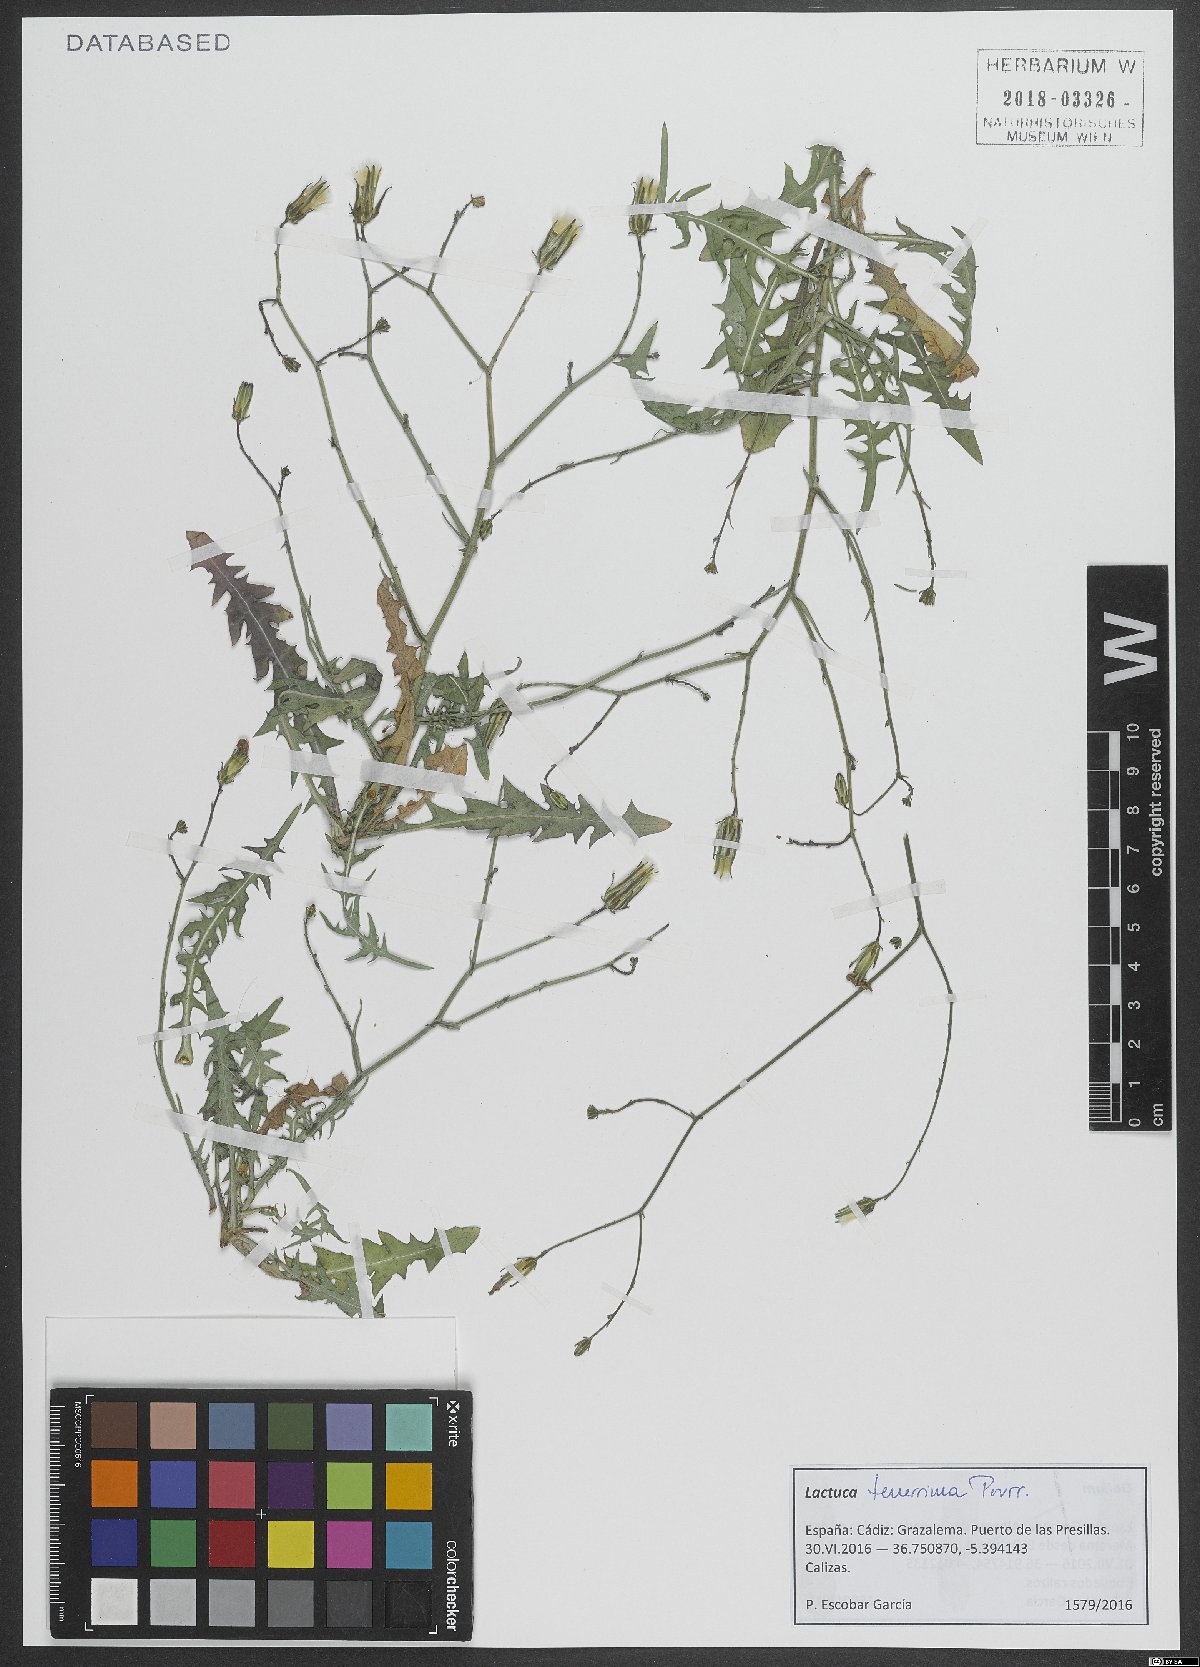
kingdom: Plantae
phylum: Tracheophyta
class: Magnoliopsida
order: Asterales
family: Asteraceae
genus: Lactuca
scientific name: Lactuca tenerrima
